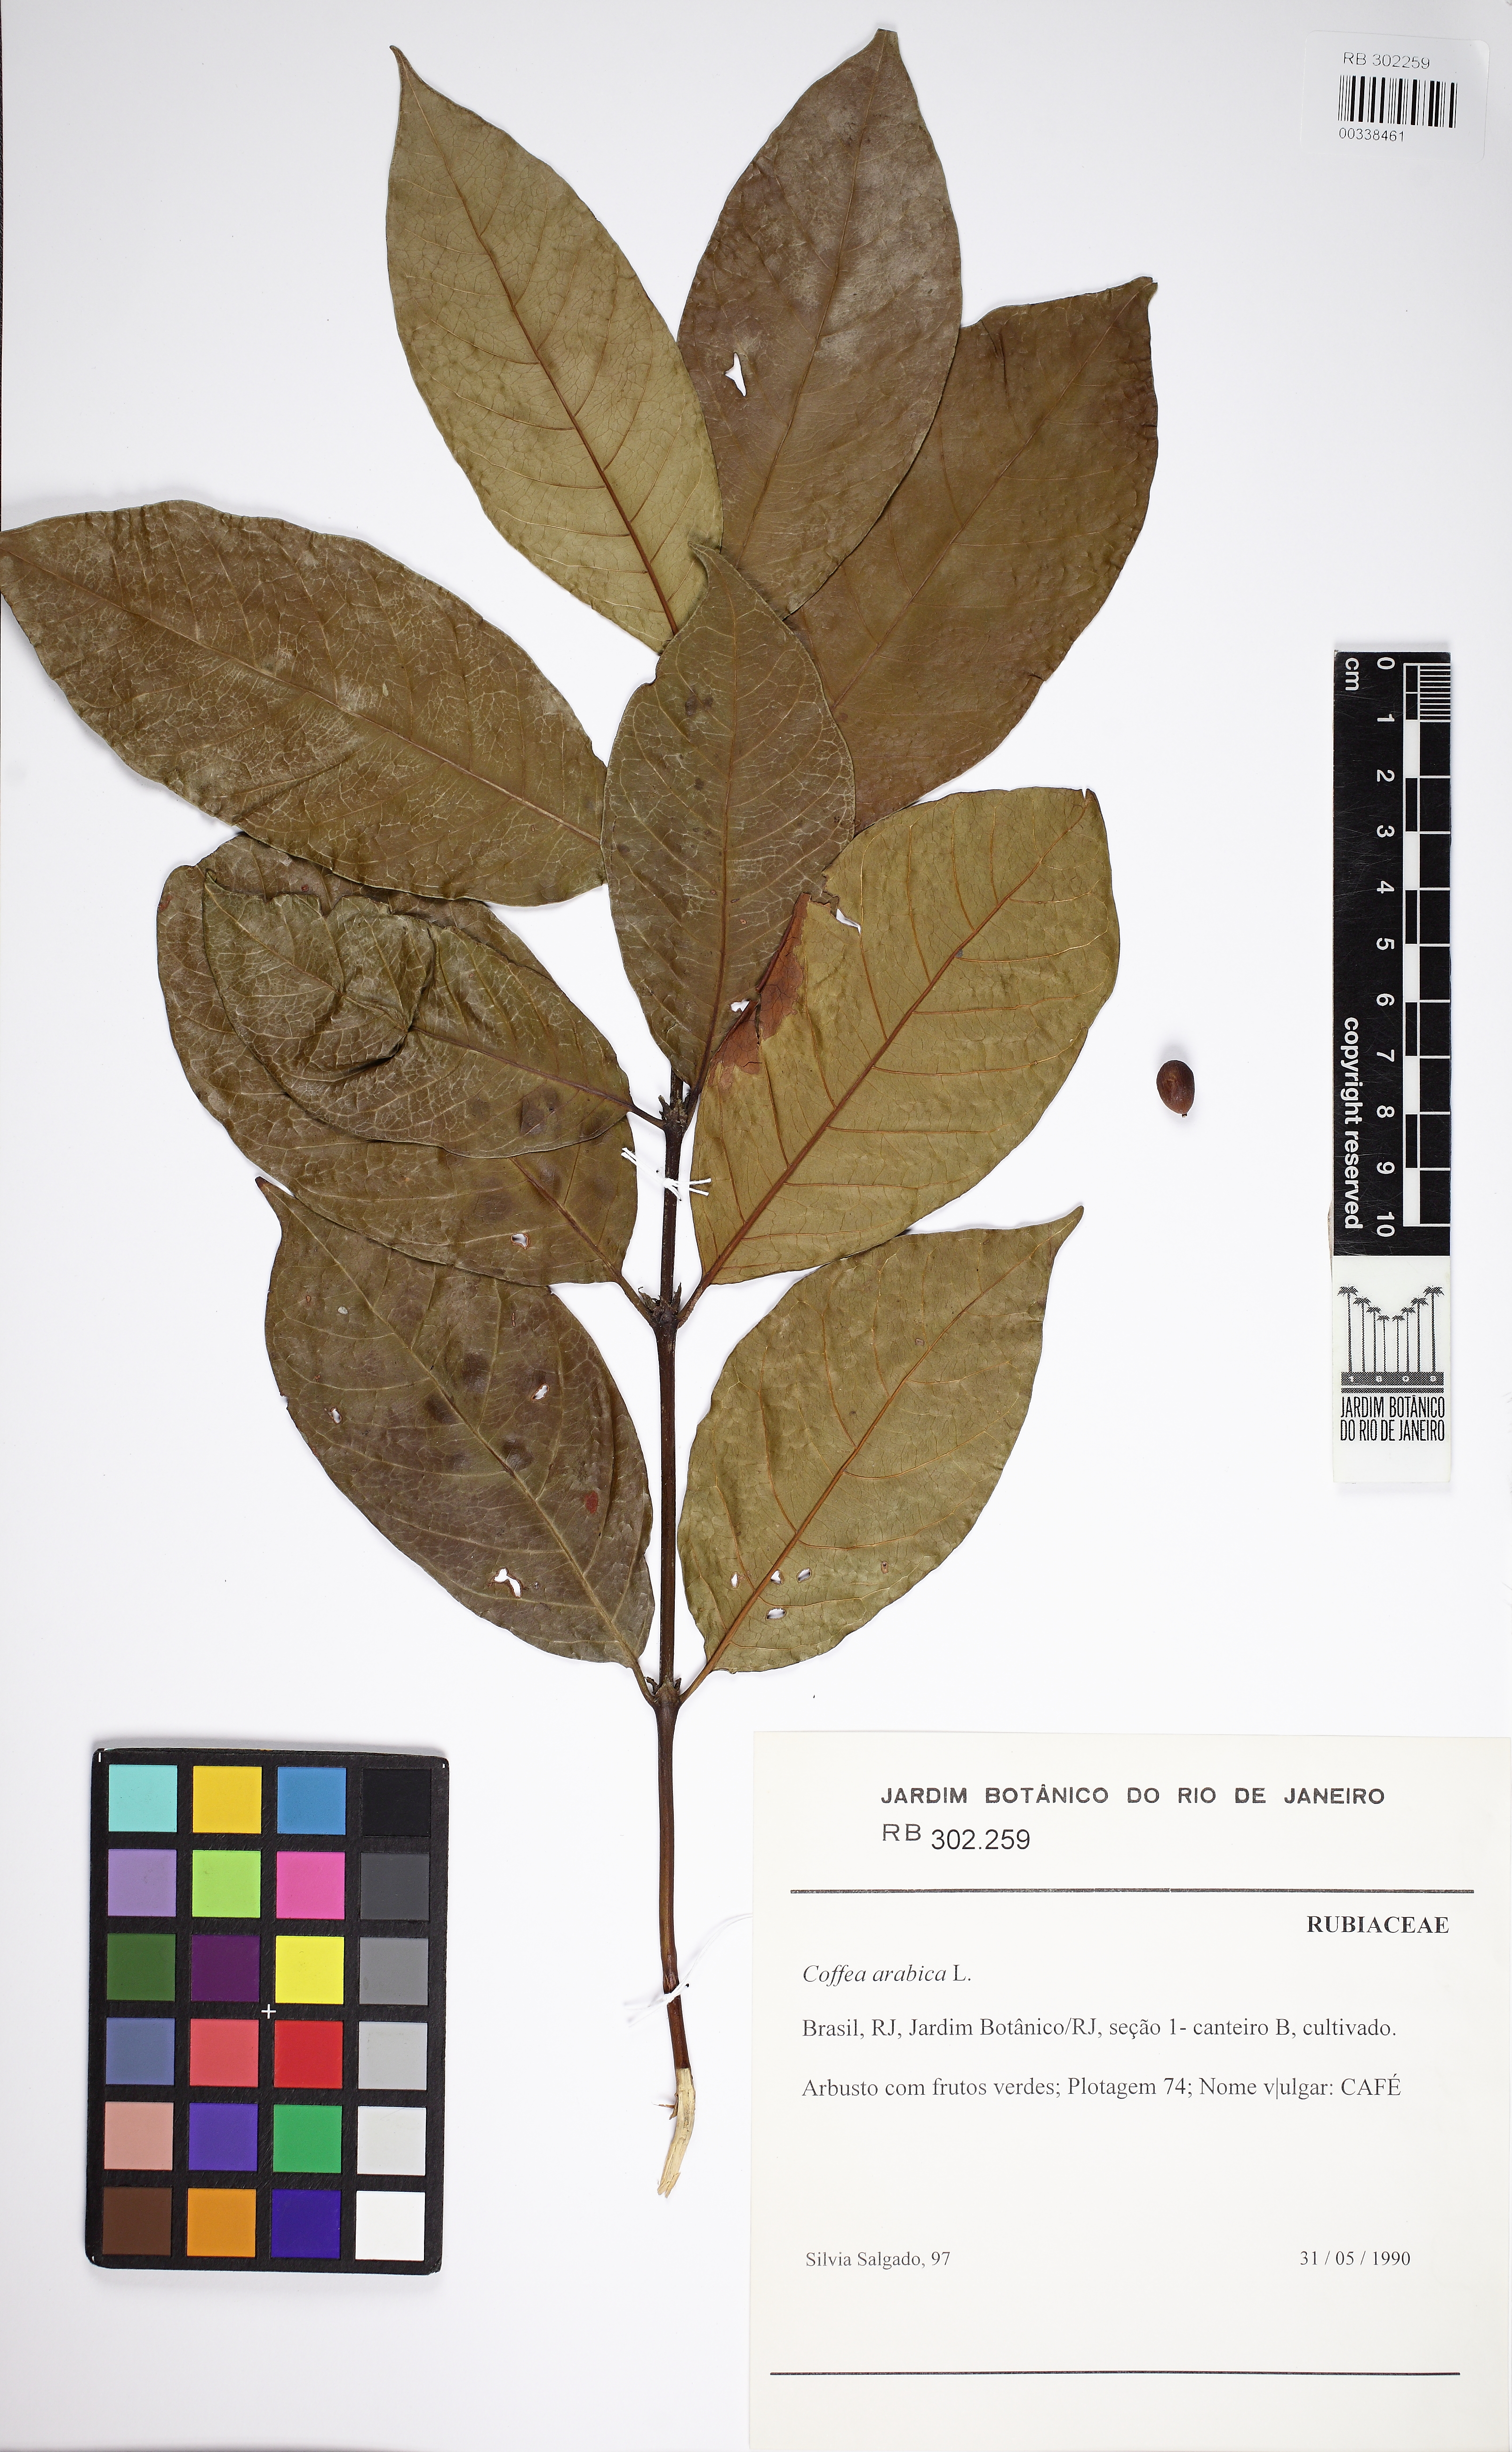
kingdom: Plantae
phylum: Tracheophyta
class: Magnoliopsida
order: Gentianales
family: Rubiaceae
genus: Coffea
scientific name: Coffea arabica
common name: Coffee
